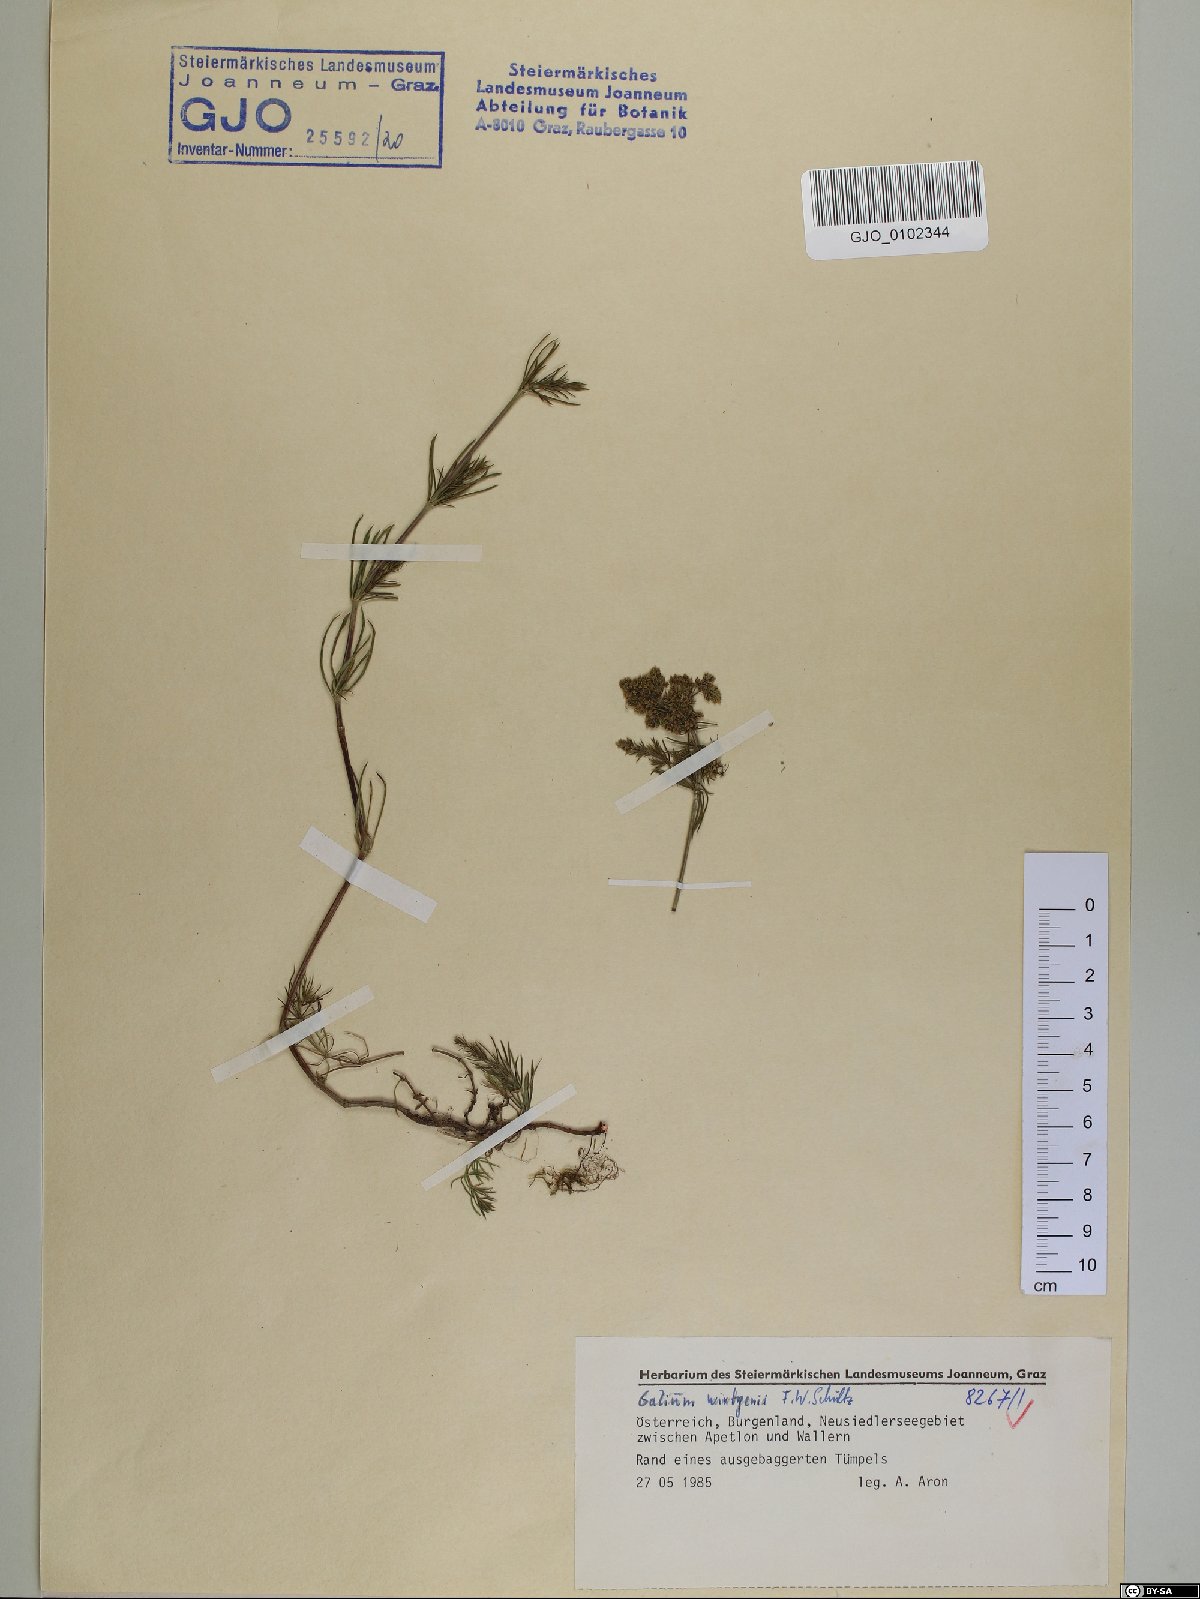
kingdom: Plantae
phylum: Tracheophyta
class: Magnoliopsida
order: Gentianales
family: Rubiaceae
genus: Galium
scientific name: Galium verum
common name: Lady's bedstraw
